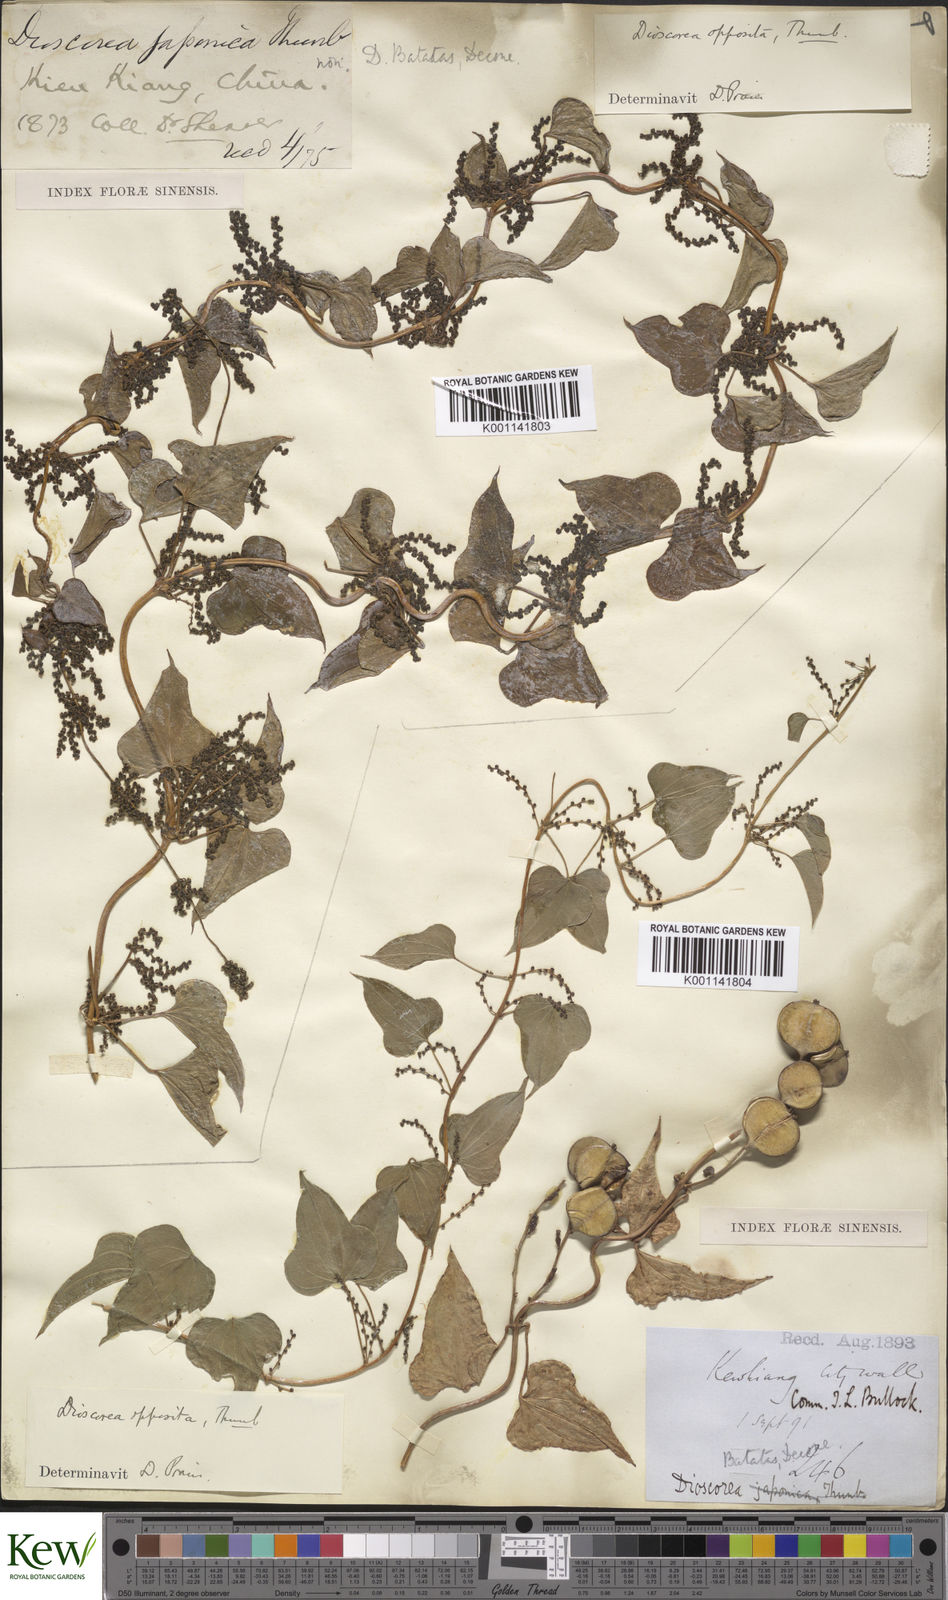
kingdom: Plantae
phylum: Tracheophyta
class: Liliopsida
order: Dioscoreales
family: Dioscoreaceae
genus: Dioscorea
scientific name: Dioscorea oppositifolia
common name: Chinese yam
